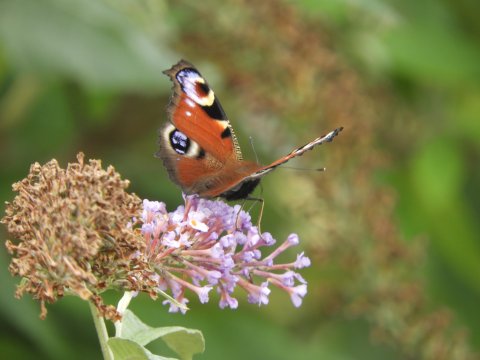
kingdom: Animalia
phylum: Arthropoda
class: Insecta
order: Lepidoptera
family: Nymphalidae
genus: Aglais
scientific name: Aglais io
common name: European Peacock
